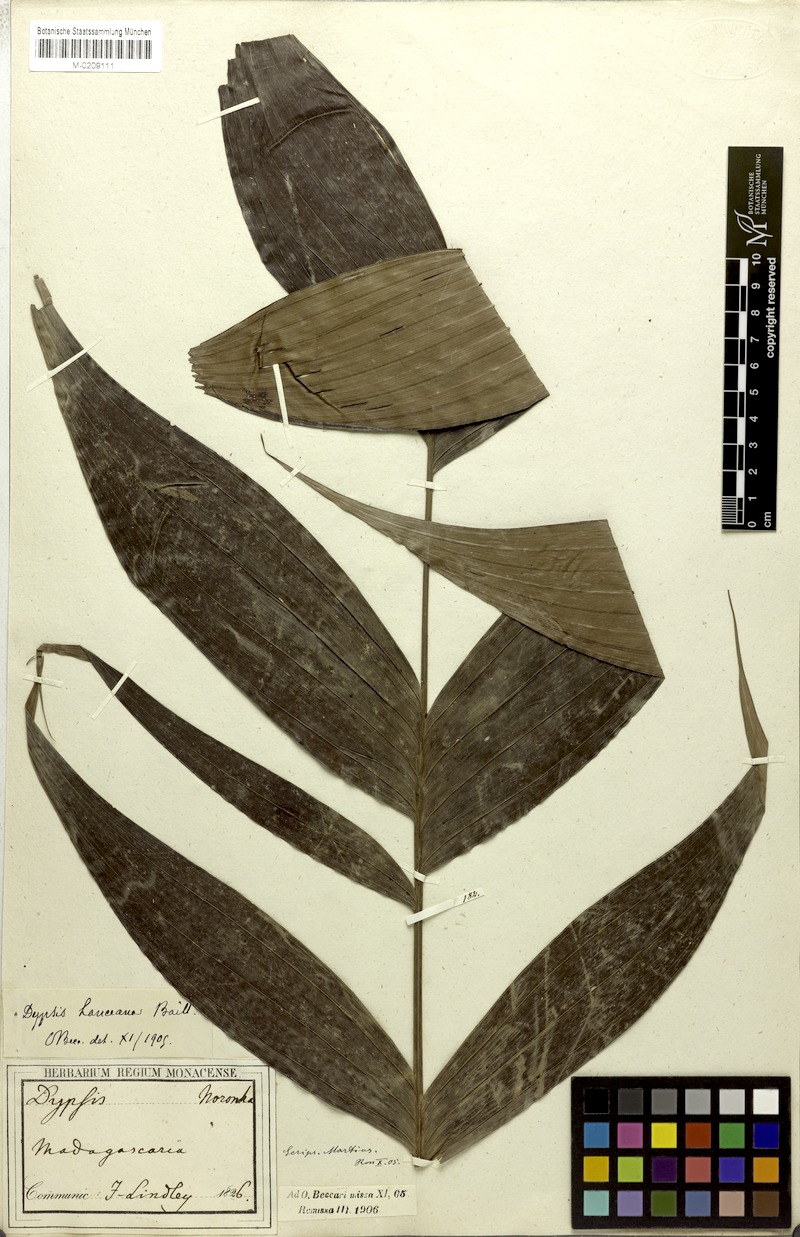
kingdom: Plantae
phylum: Tracheophyta
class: Liliopsida
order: Arecales
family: Arecaceae
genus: Dypsis
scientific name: Dypsis lantzeana
